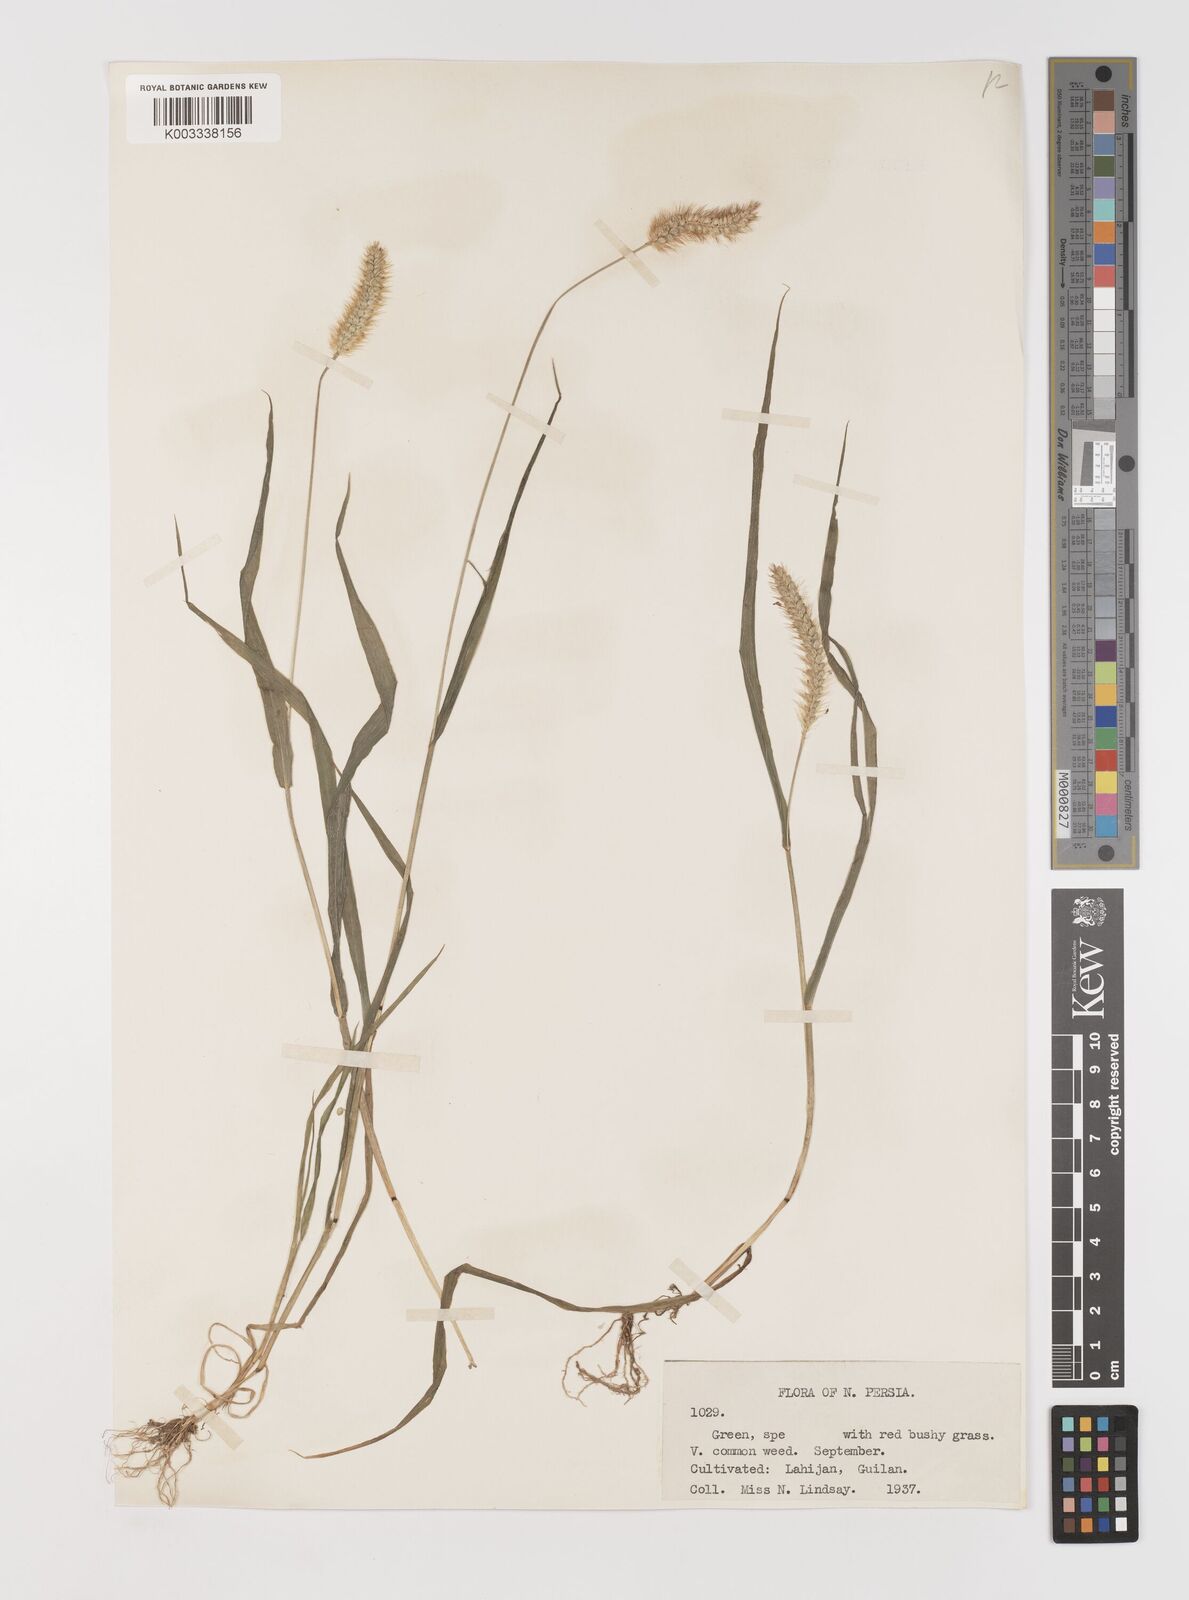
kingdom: Plantae
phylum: Tracheophyta
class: Liliopsida
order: Poales
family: Poaceae
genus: Setaria
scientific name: Setaria pumila
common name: Yellow bristle-grass
